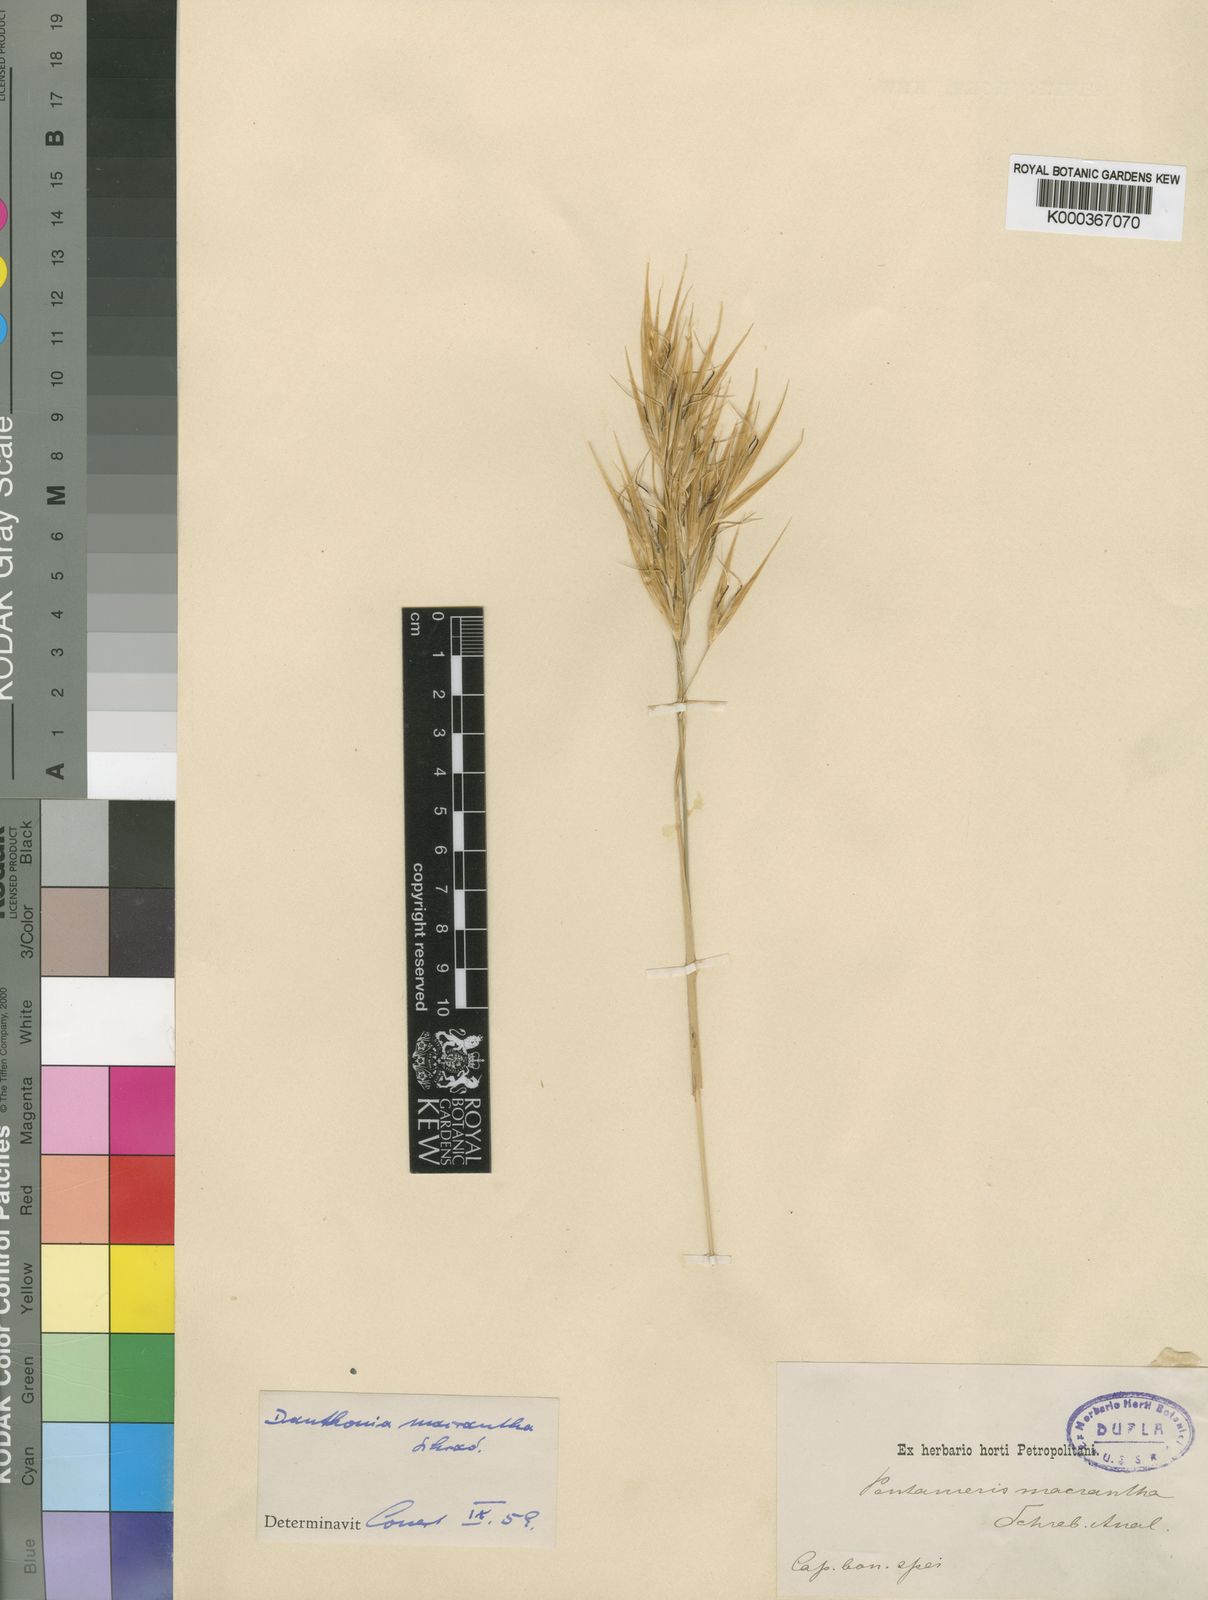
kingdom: Plantae
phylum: Tracheophyta
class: Liliopsida
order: Poales
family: Poaceae
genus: Pseudopentameris
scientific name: Pseudopentameris macrantha
